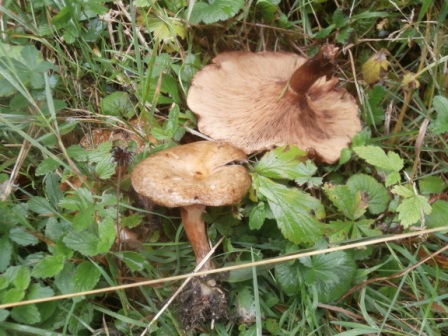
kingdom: Fungi
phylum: Basidiomycota
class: Agaricomycetes
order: Boletales
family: Paxillaceae
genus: Paxillus
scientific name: Paxillus involutus
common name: almindelig netbladhat
